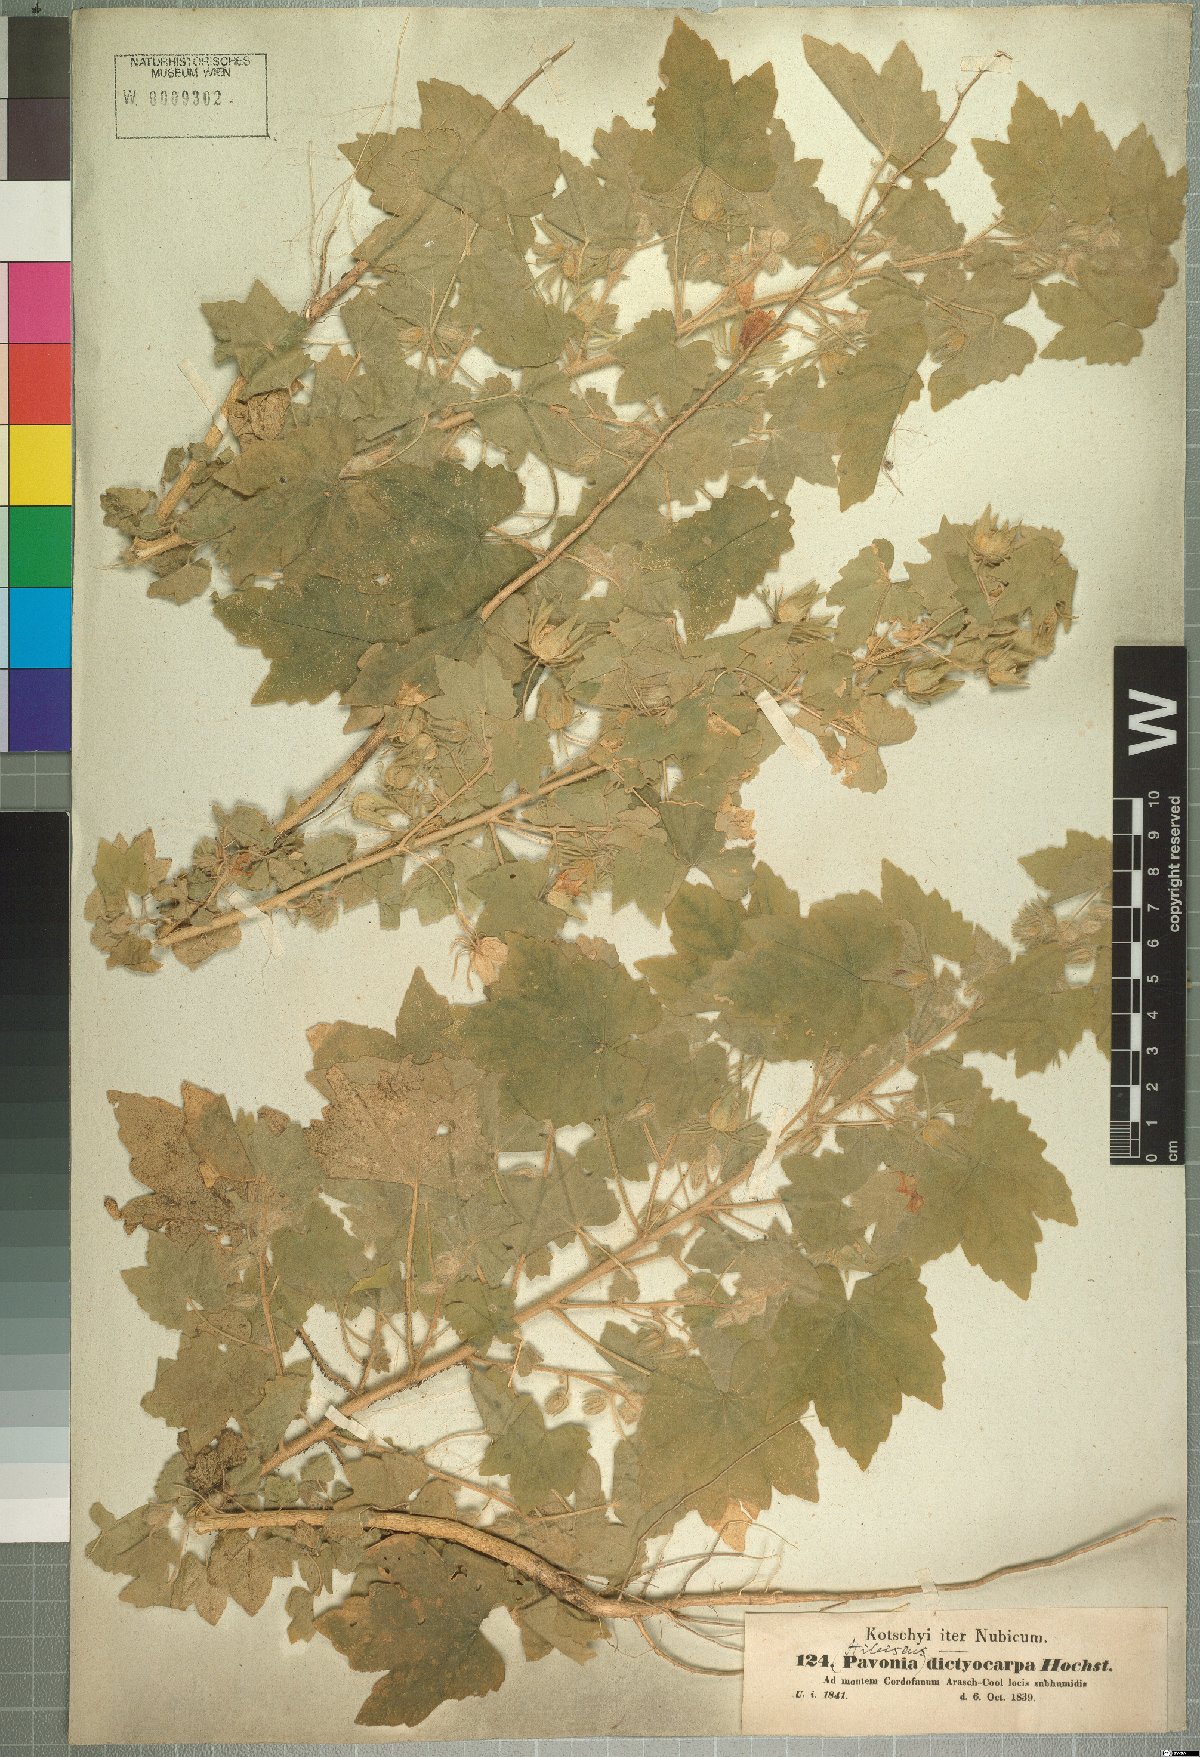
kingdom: Plantae
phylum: Tracheophyta
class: Magnoliopsida
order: Malvales
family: Malvaceae
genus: Roifia
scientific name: Roifia dictyocarpa
